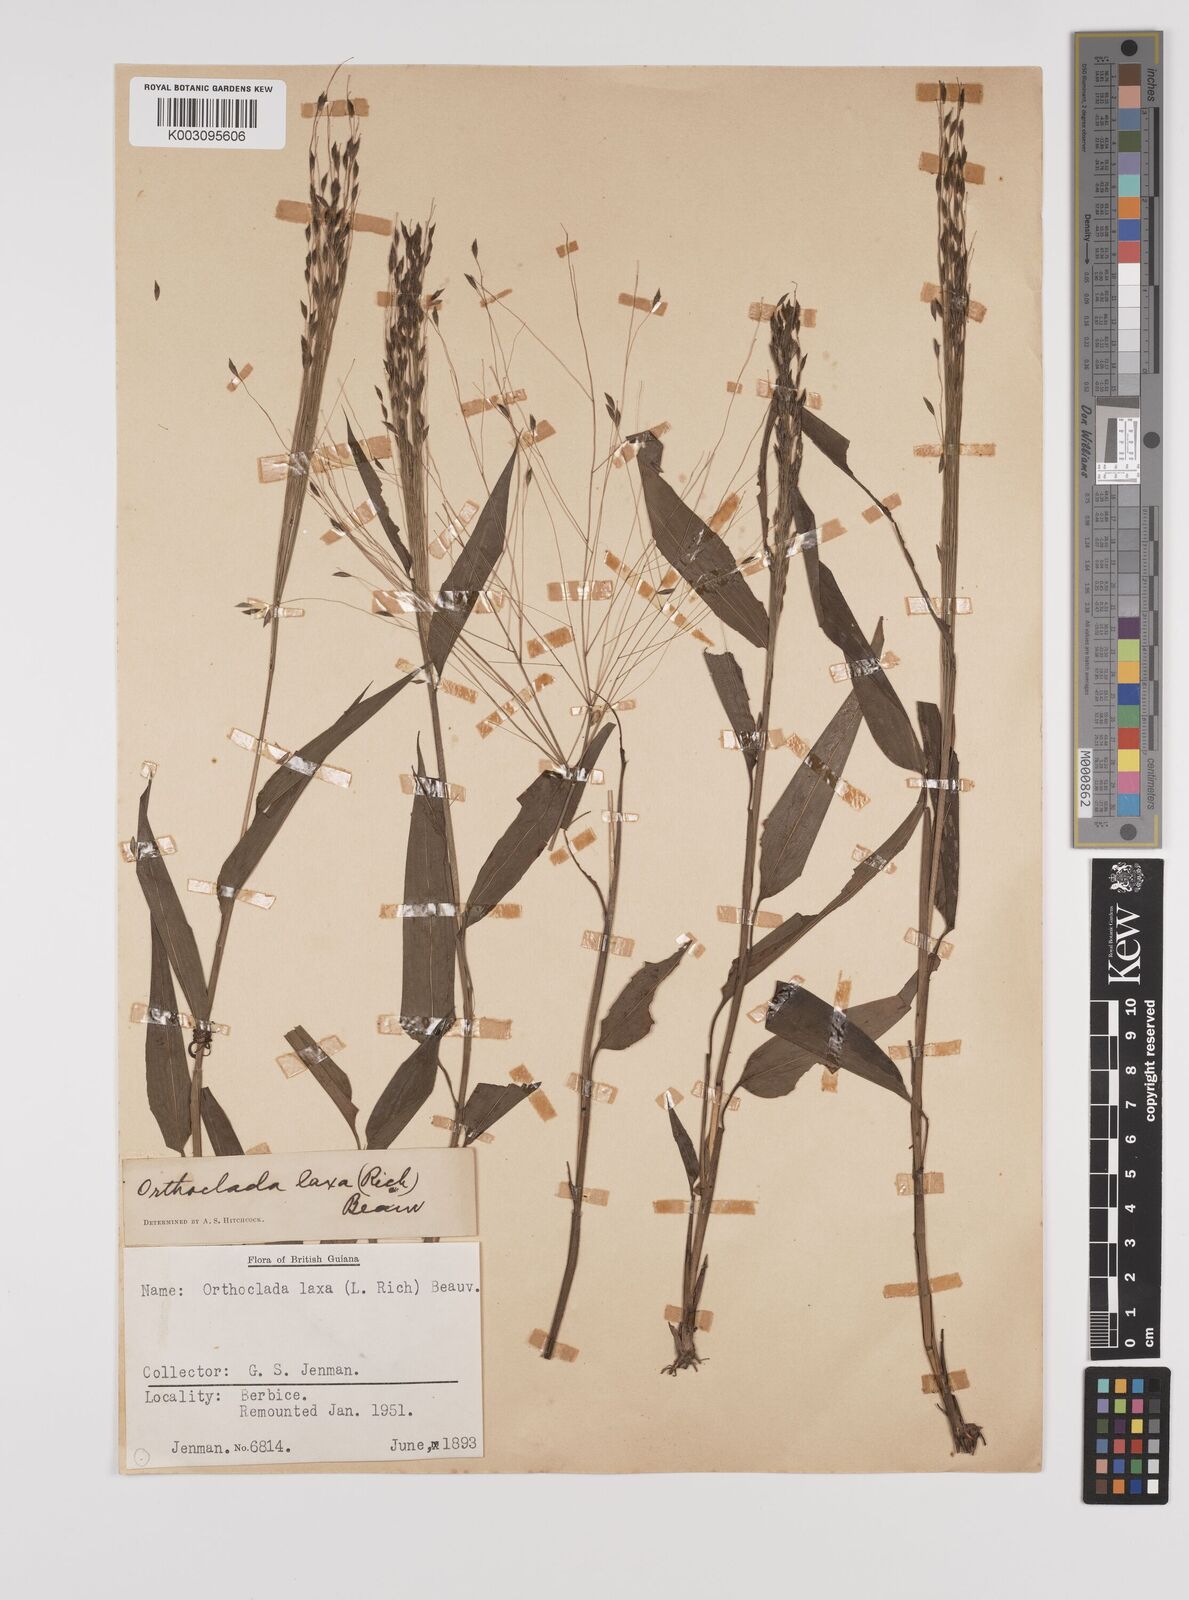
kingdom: Plantae
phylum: Tracheophyta
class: Liliopsida
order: Poales
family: Poaceae
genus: Orthoclada
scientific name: Orthoclada laxa
